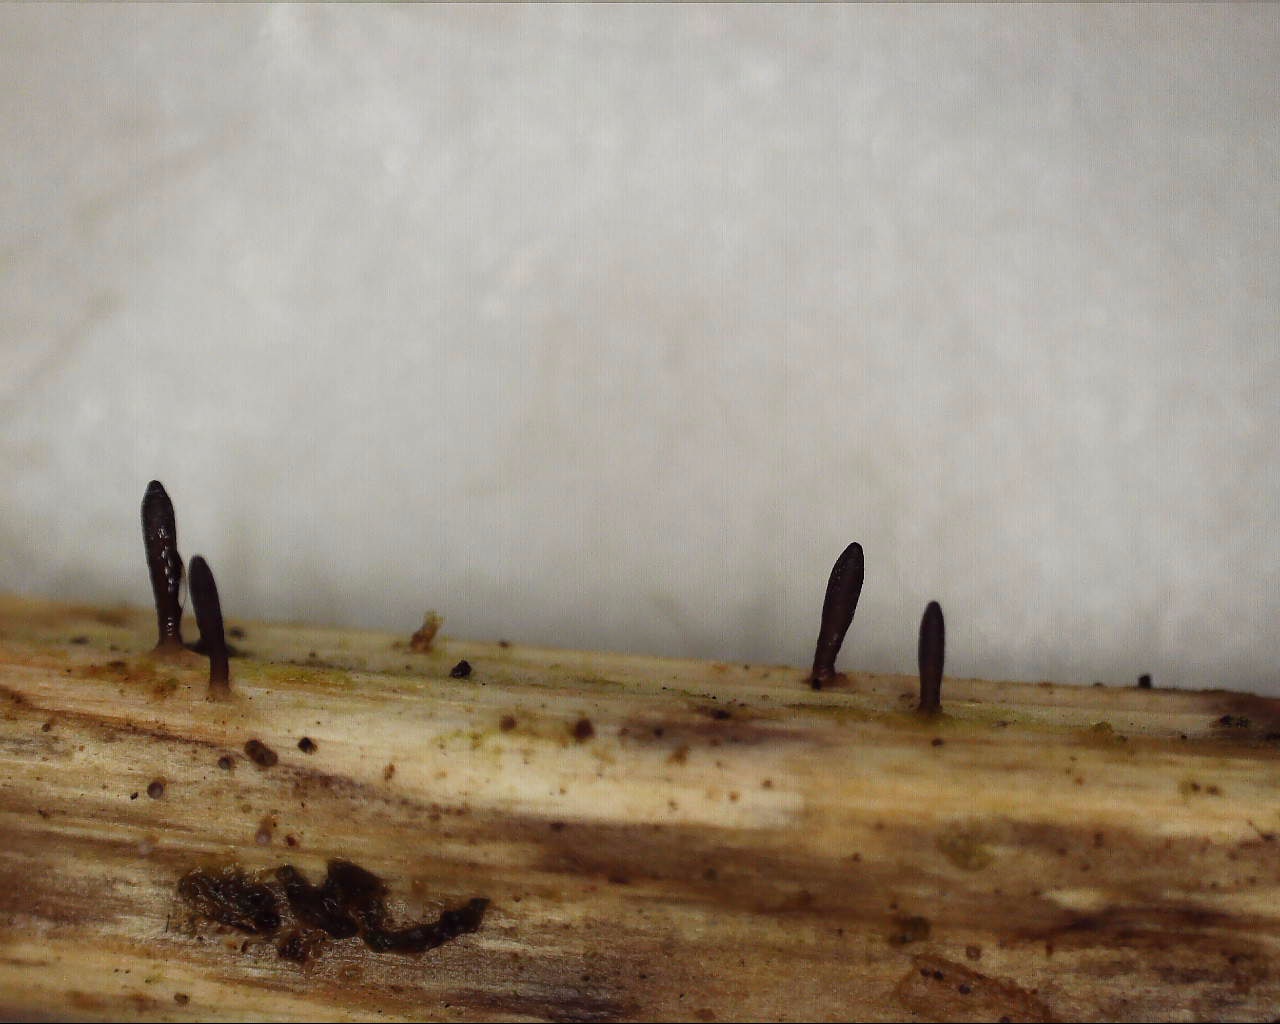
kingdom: Fungi
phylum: Ascomycota
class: Dothideomycetes
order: Acrospermales
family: Acrospermaceae
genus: Acrospermum
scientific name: Acrospermum compressum
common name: nælde-stængeltunge
